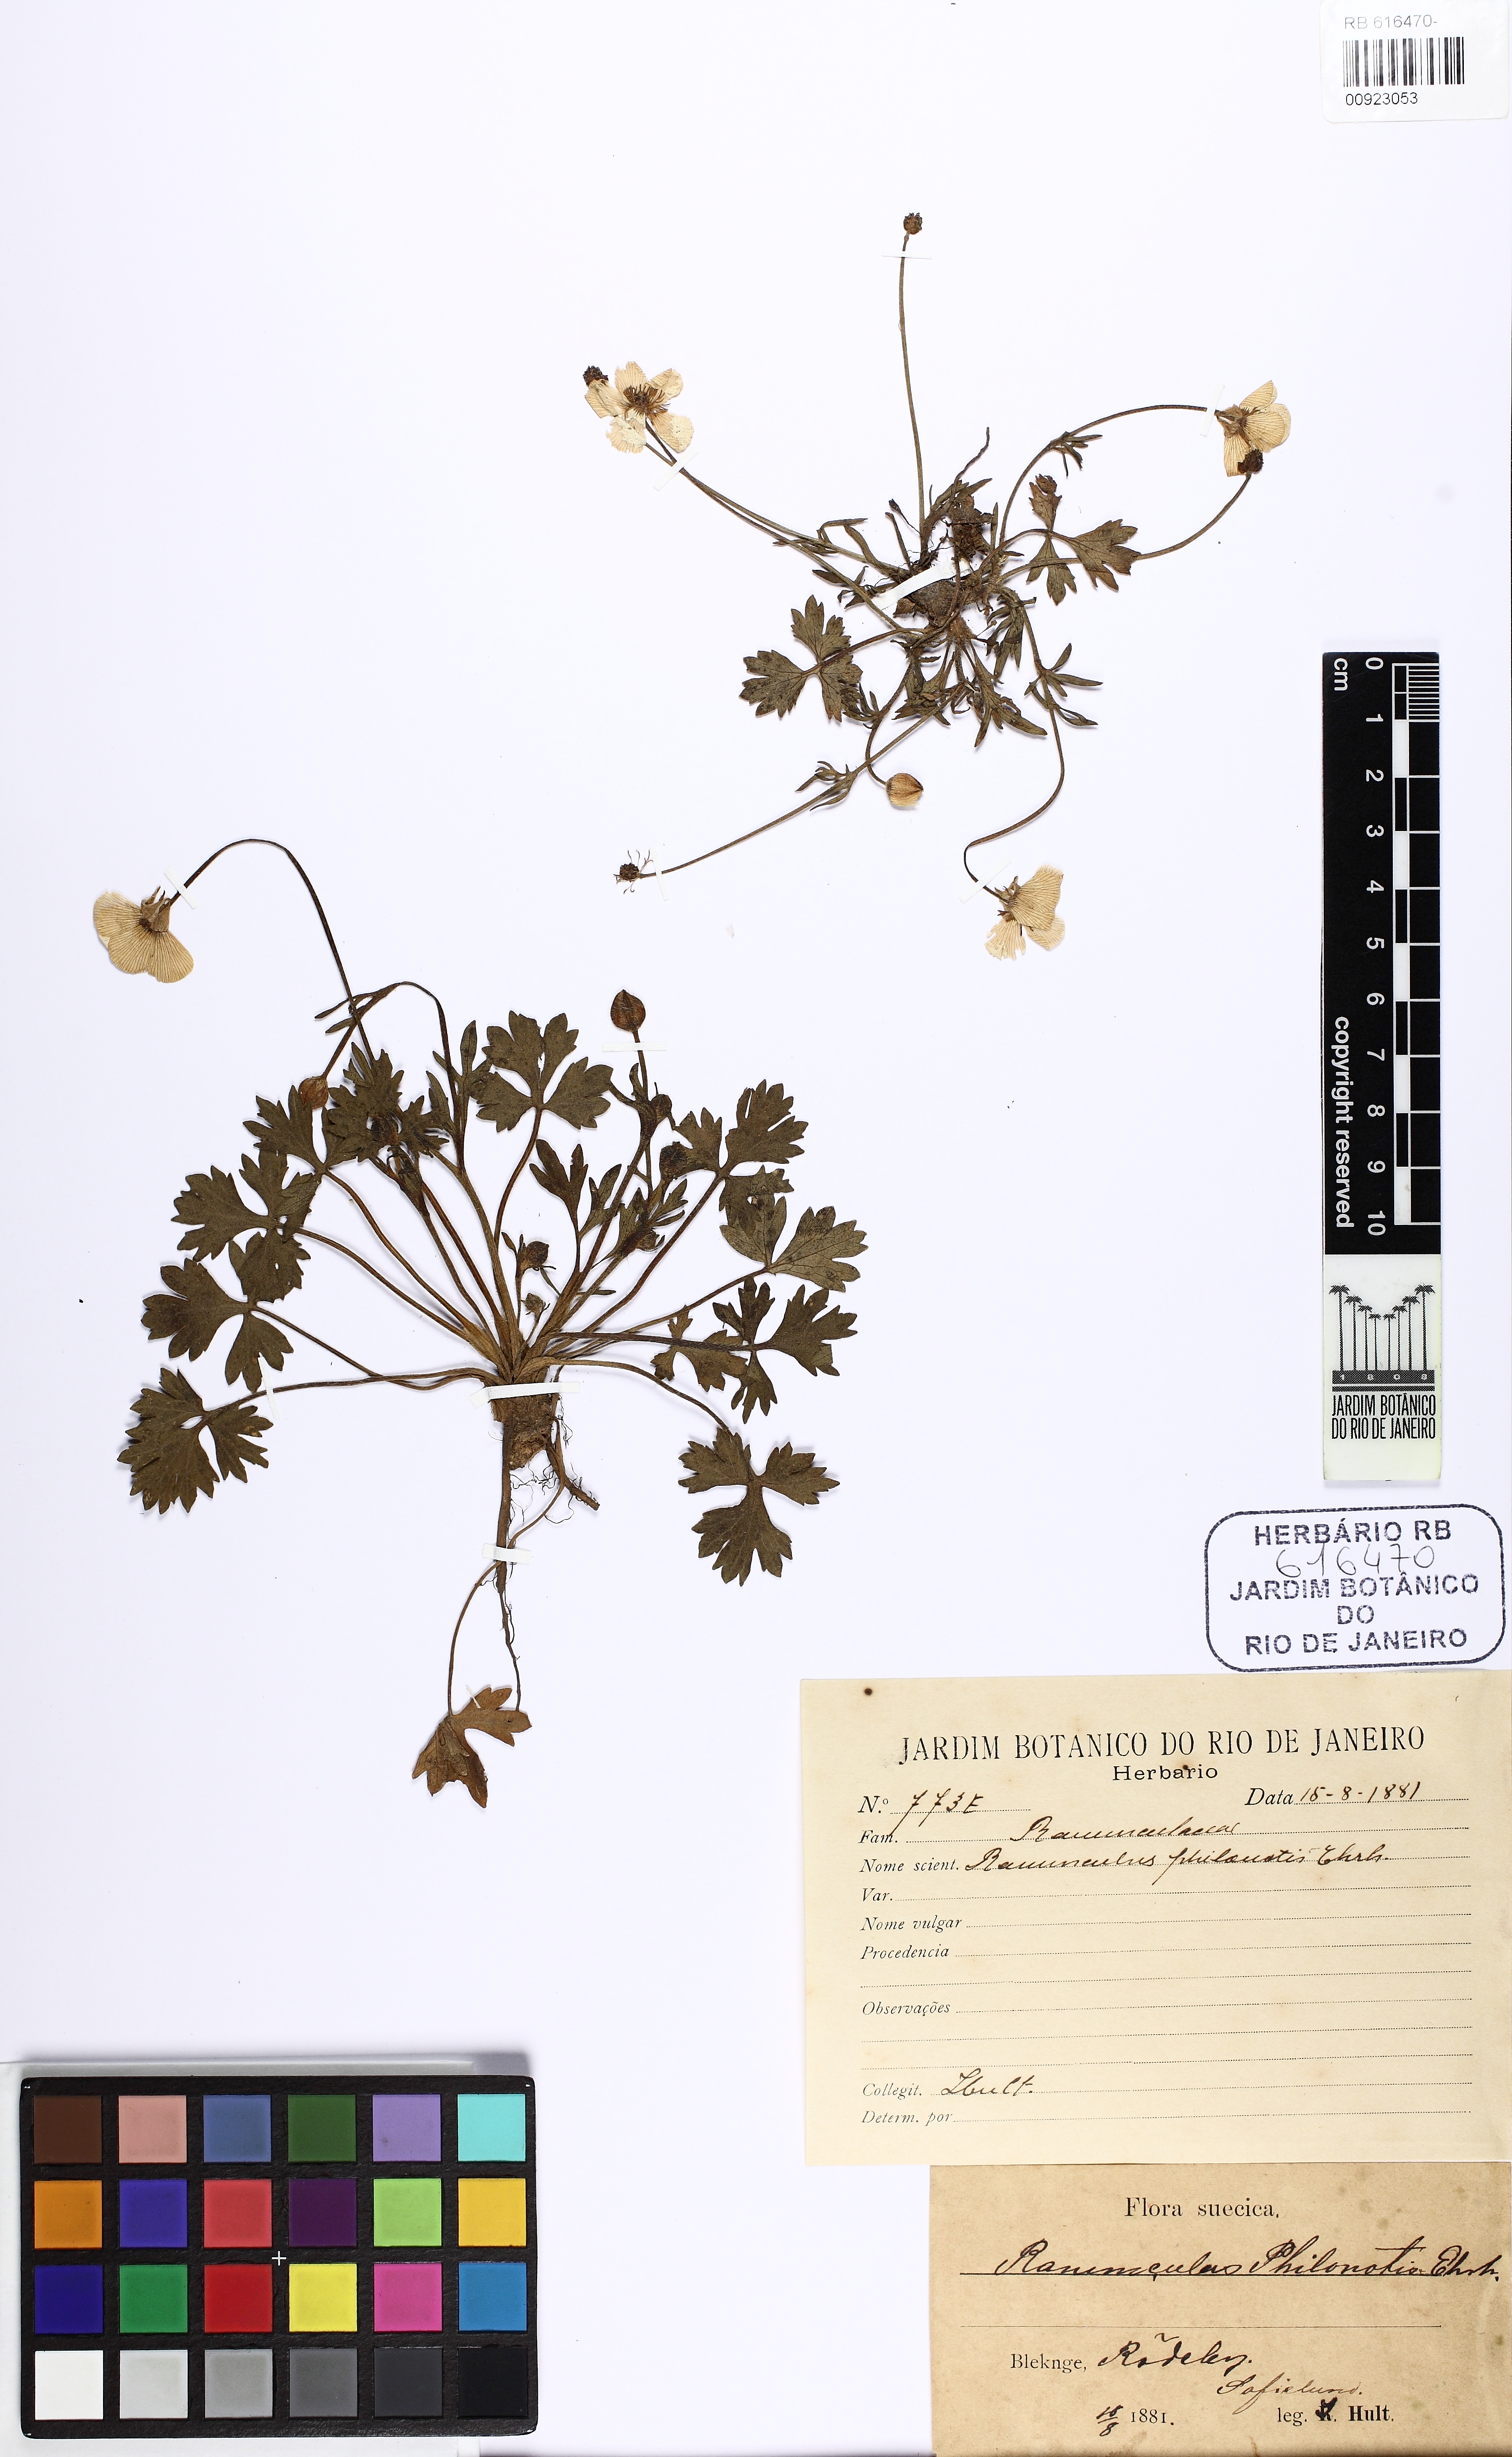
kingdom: Plantae
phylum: Tracheophyta
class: Magnoliopsida
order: Ranunculales
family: Ranunculaceae
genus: Ranunculus
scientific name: Ranunculus sardous
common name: Hairy buttercup
